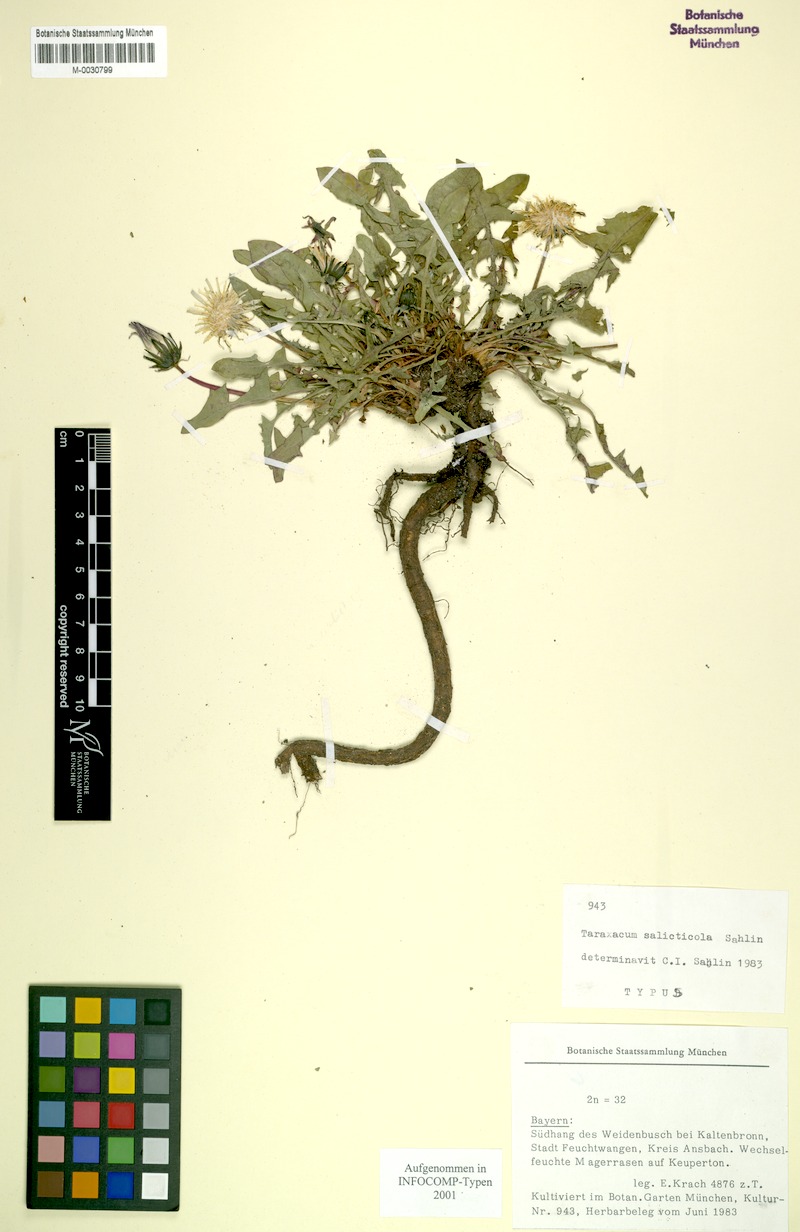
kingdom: Plantae
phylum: Tracheophyta
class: Magnoliopsida
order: Asterales
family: Asteraceae
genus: Taraxacum
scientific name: Taraxacum
